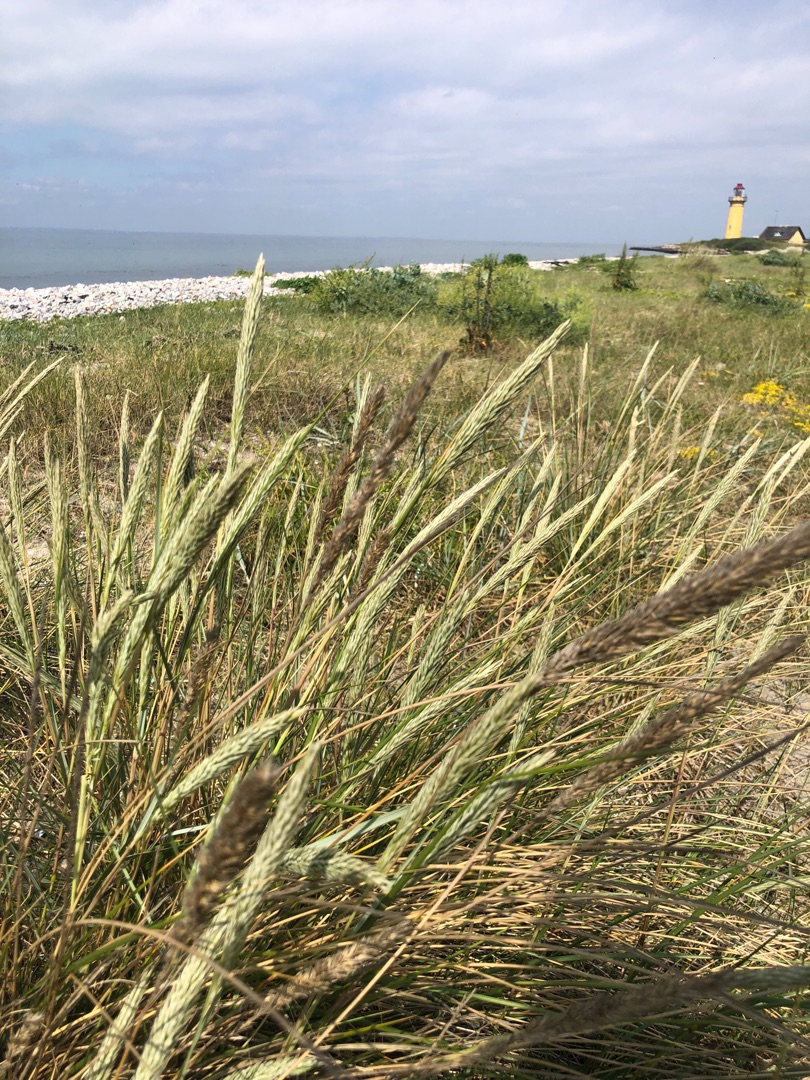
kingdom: Plantae
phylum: Tracheophyta
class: Liliopsida
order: Poales
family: Poaceae
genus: Calamagrostis
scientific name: Calamagrostis arenaria
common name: Sand-hjælme
